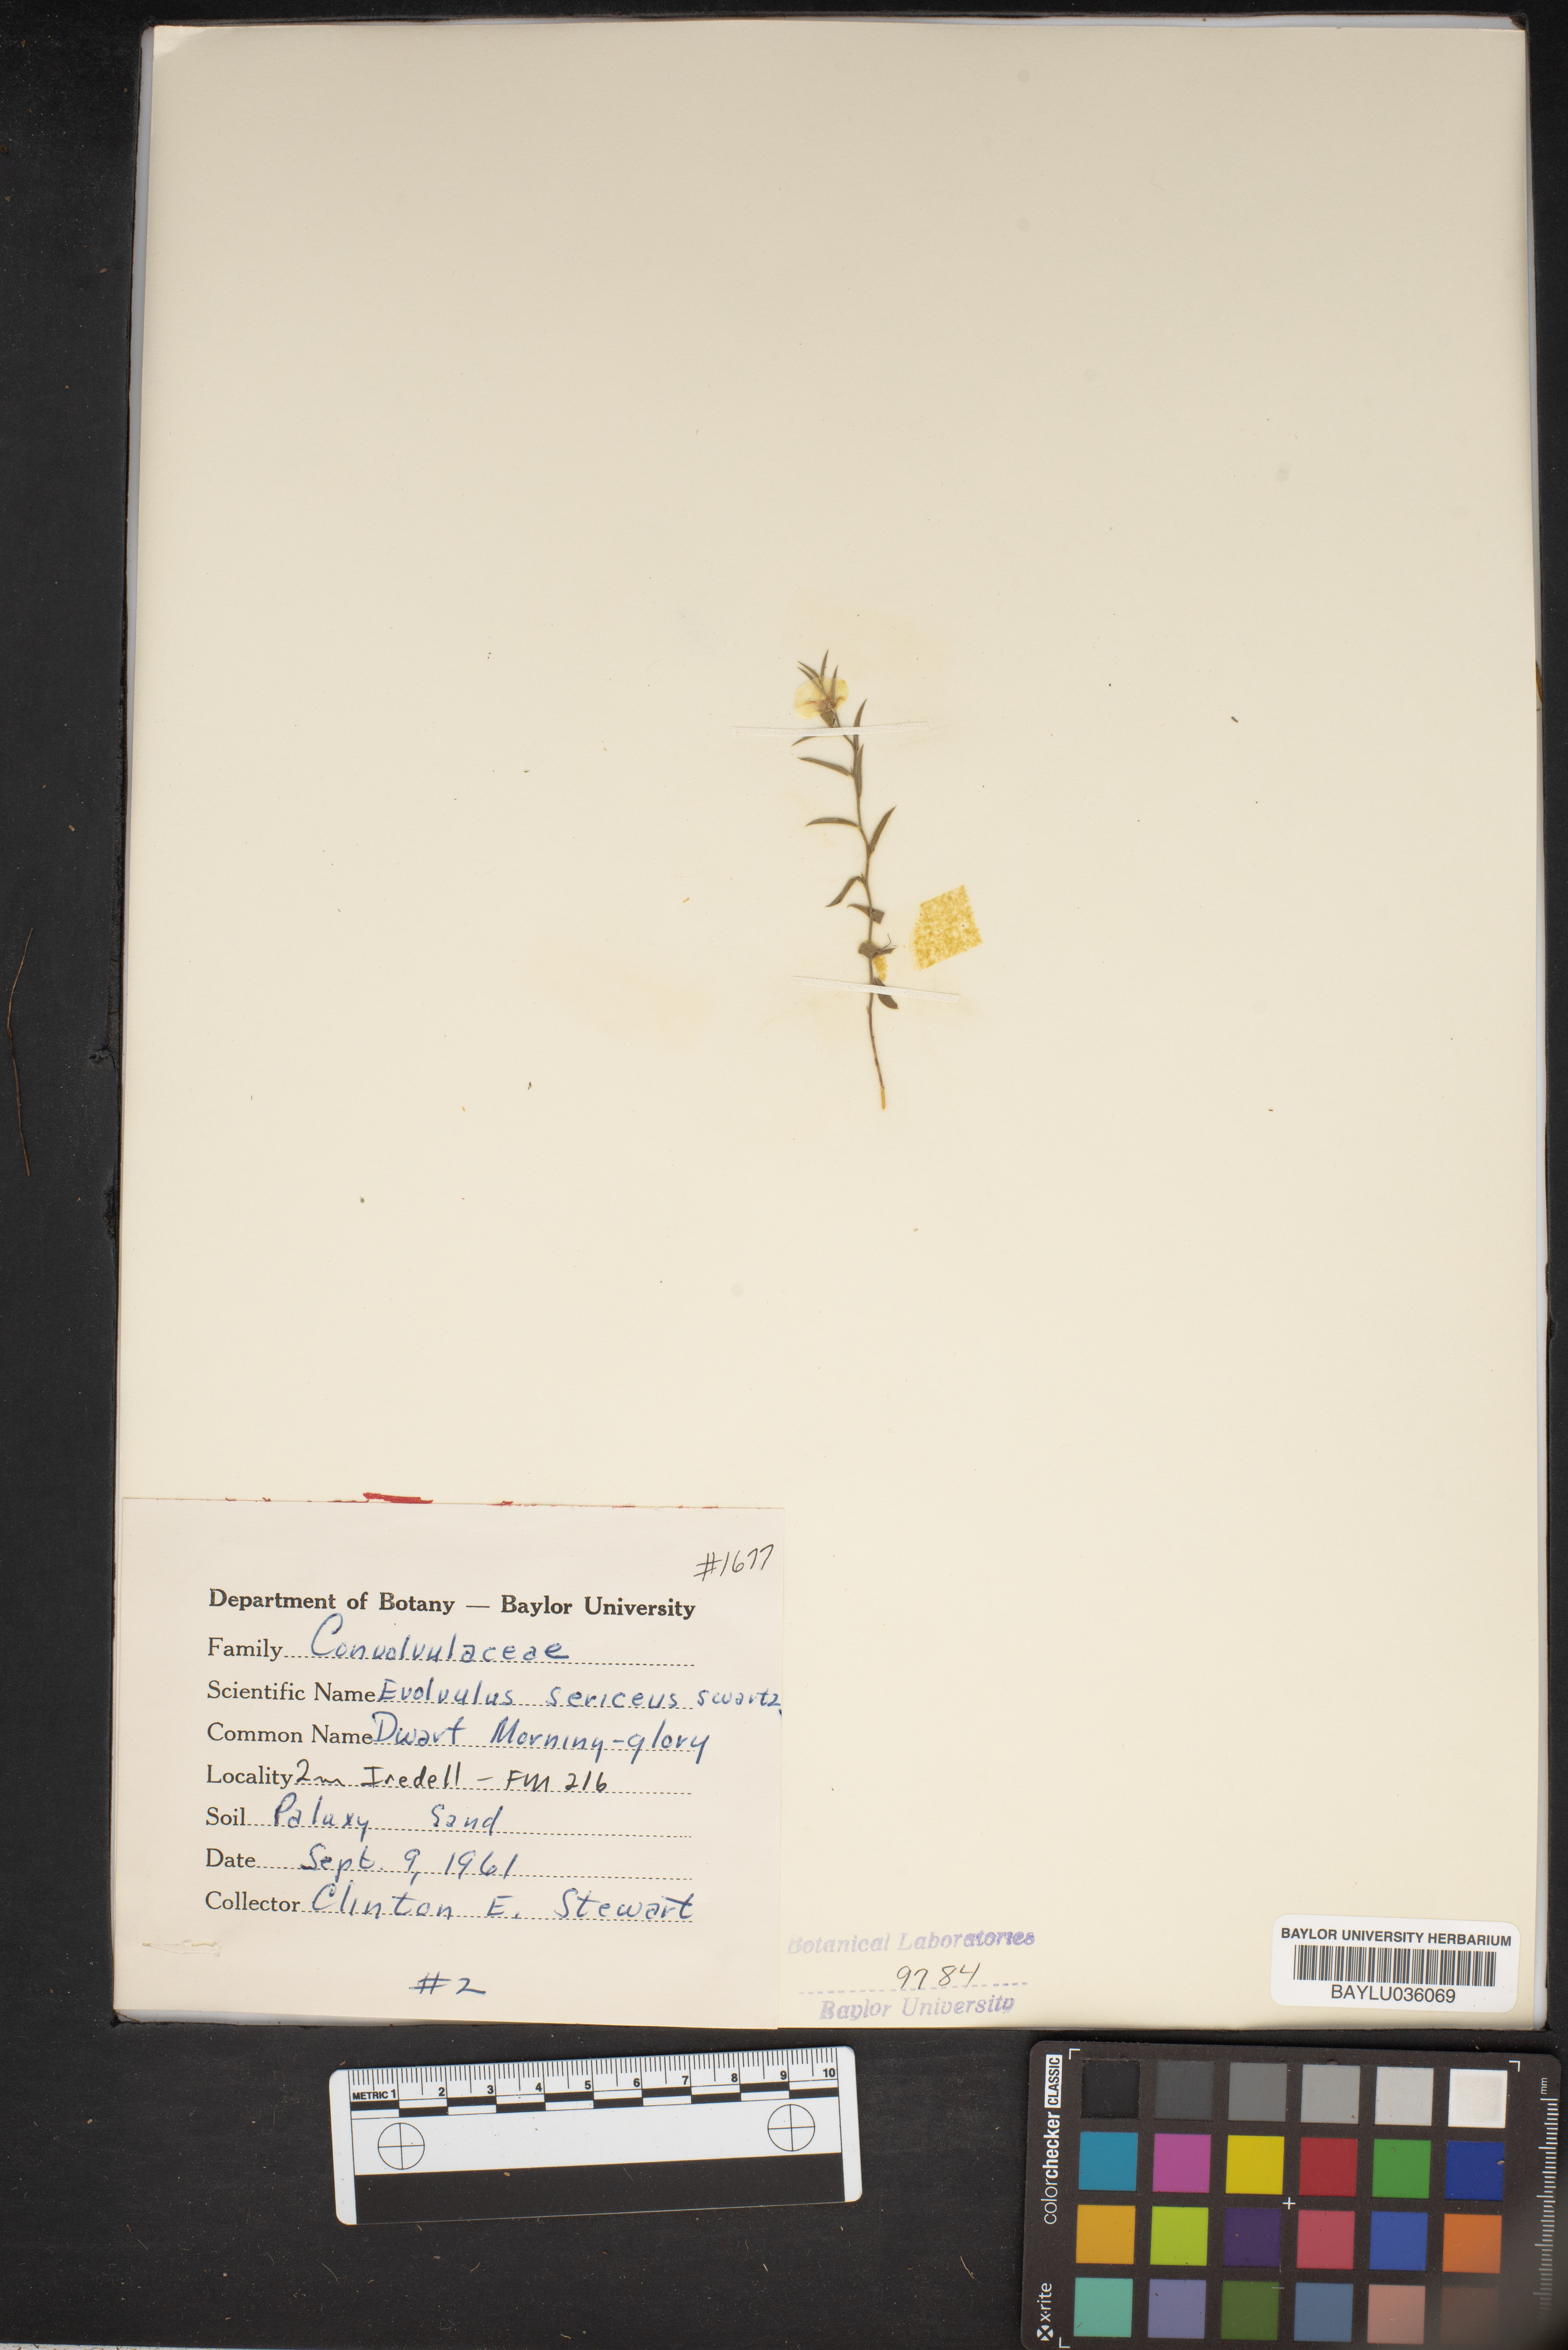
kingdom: Plantae
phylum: Tracheophyta
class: Magnoliopsida
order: Solanales
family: Convolvulaceae
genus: Evolvulus
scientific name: Evolvulus sericeus
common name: Blue dots
